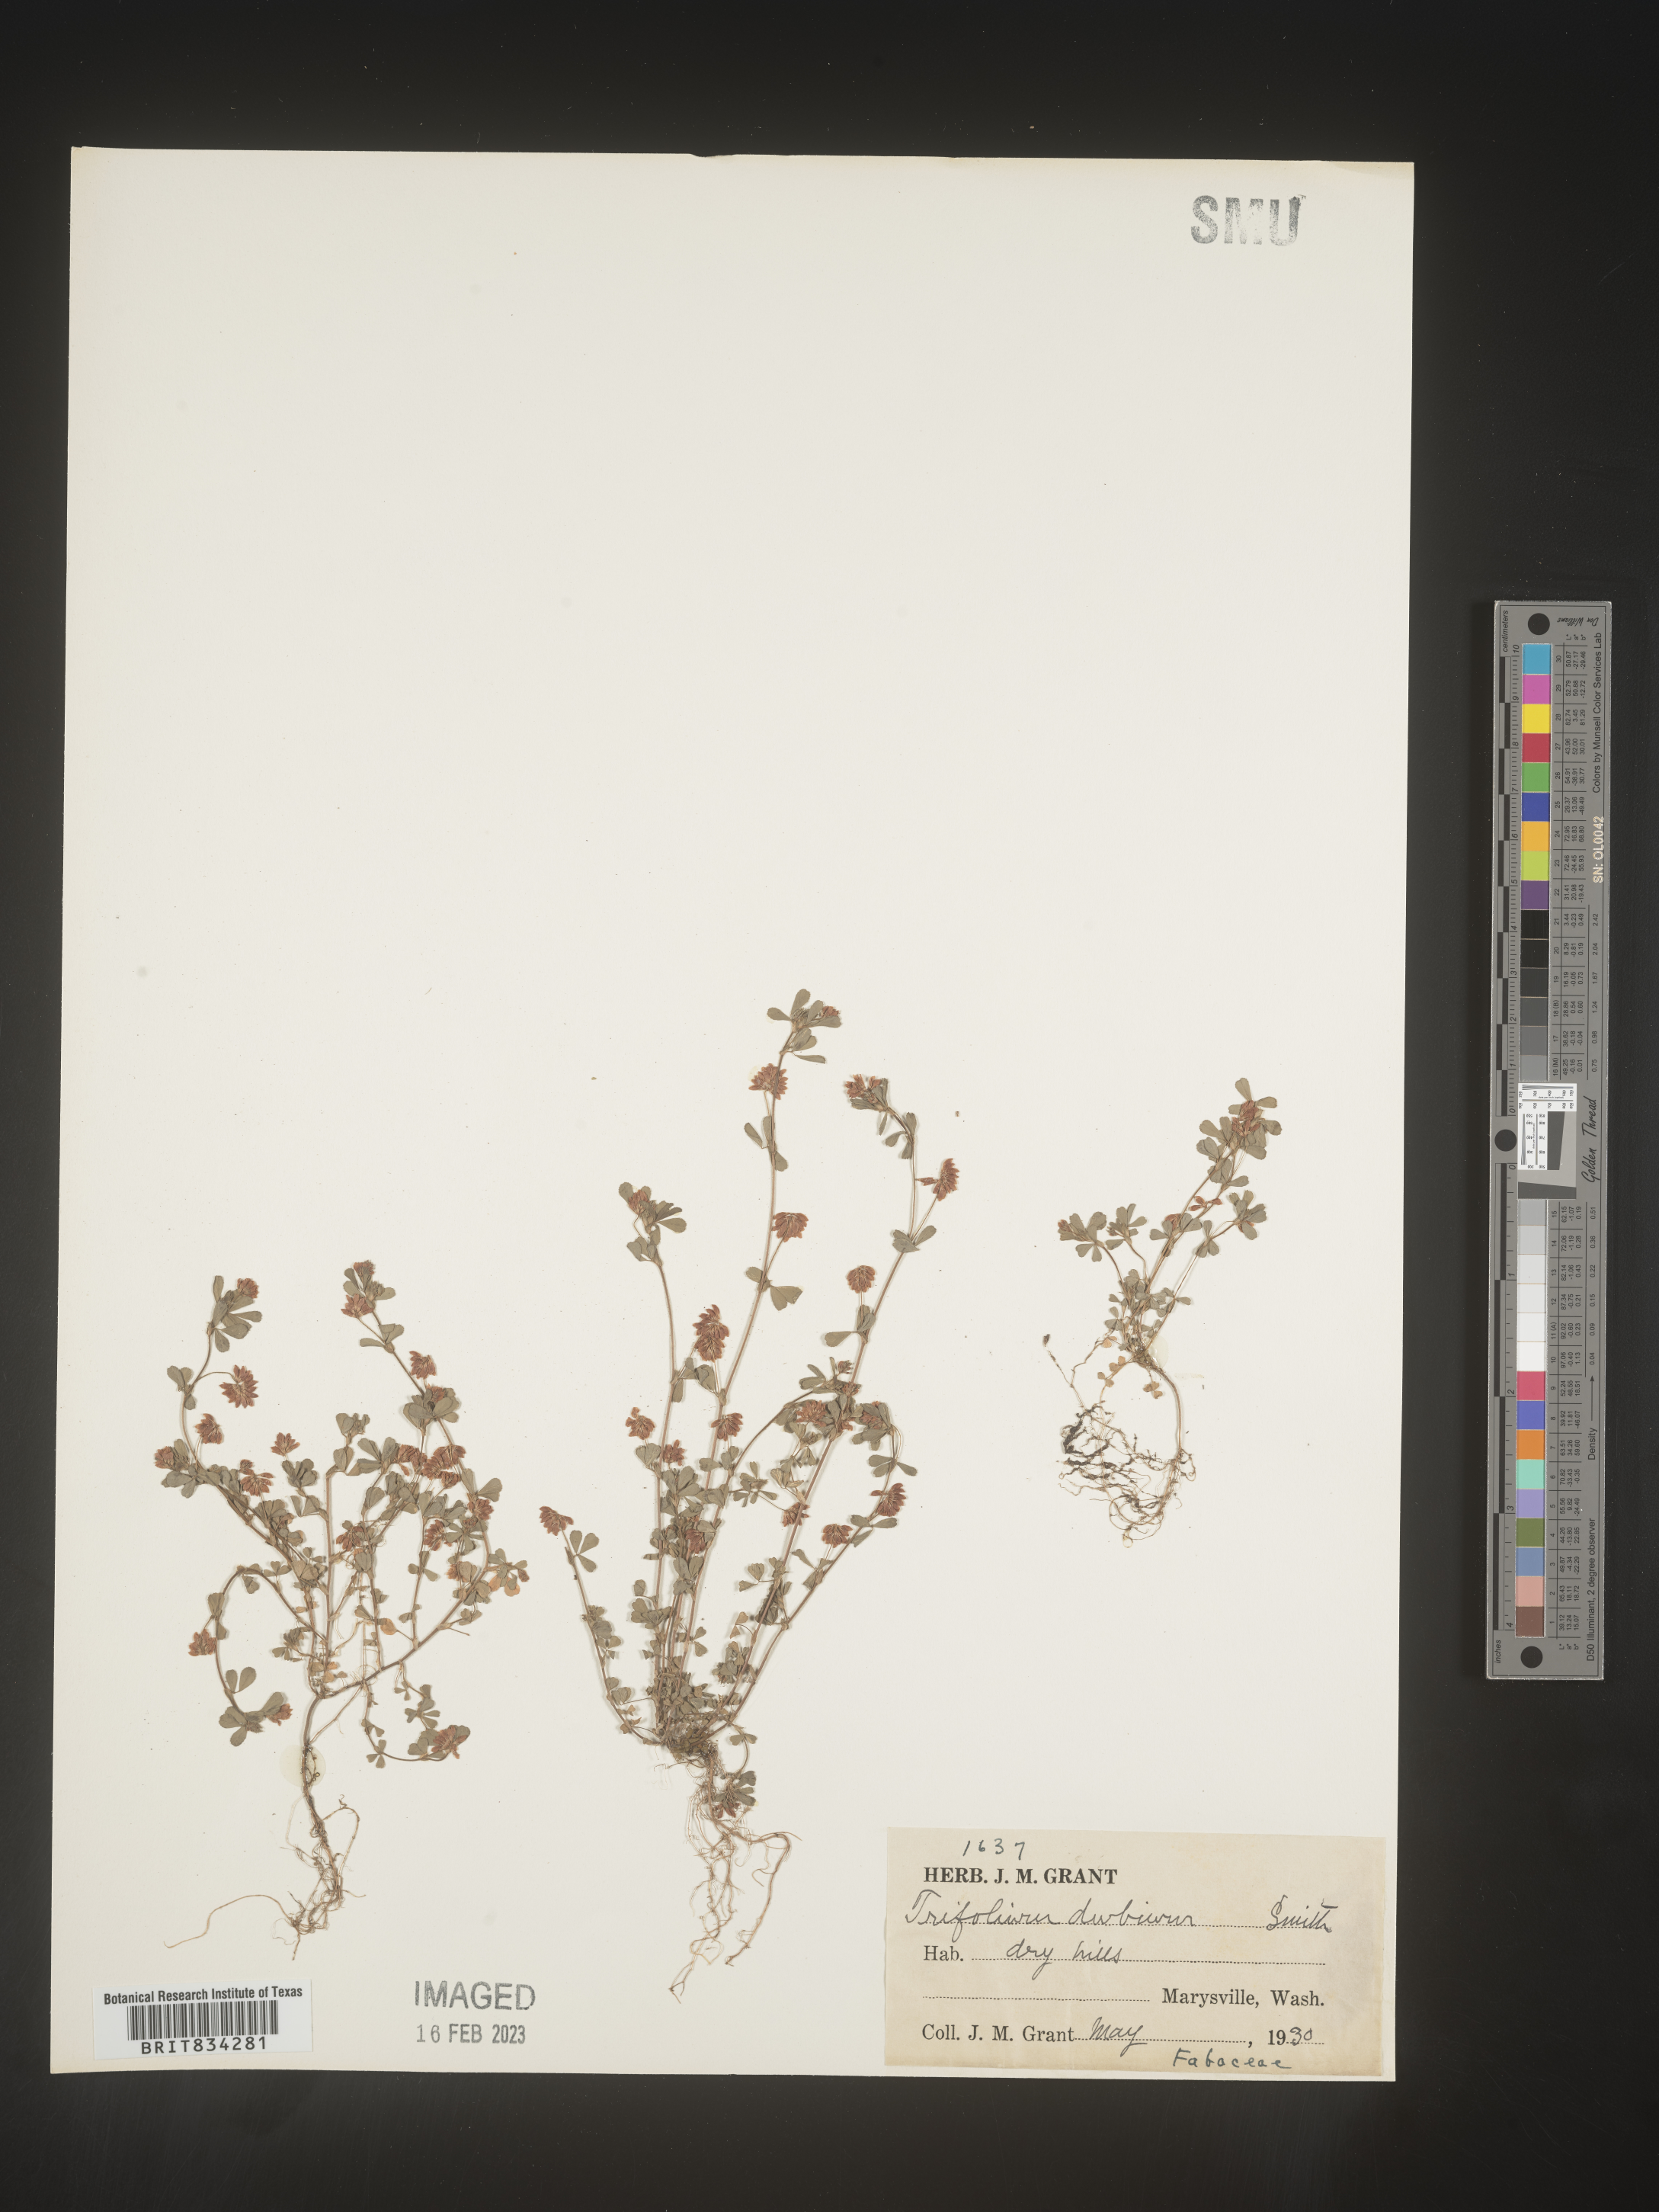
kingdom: Plantae
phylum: Tracheophyta
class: Magnoliopsida
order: Fabales
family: Fabaceae
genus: Trifolium
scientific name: Trifolium dubium
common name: Suckling clover
